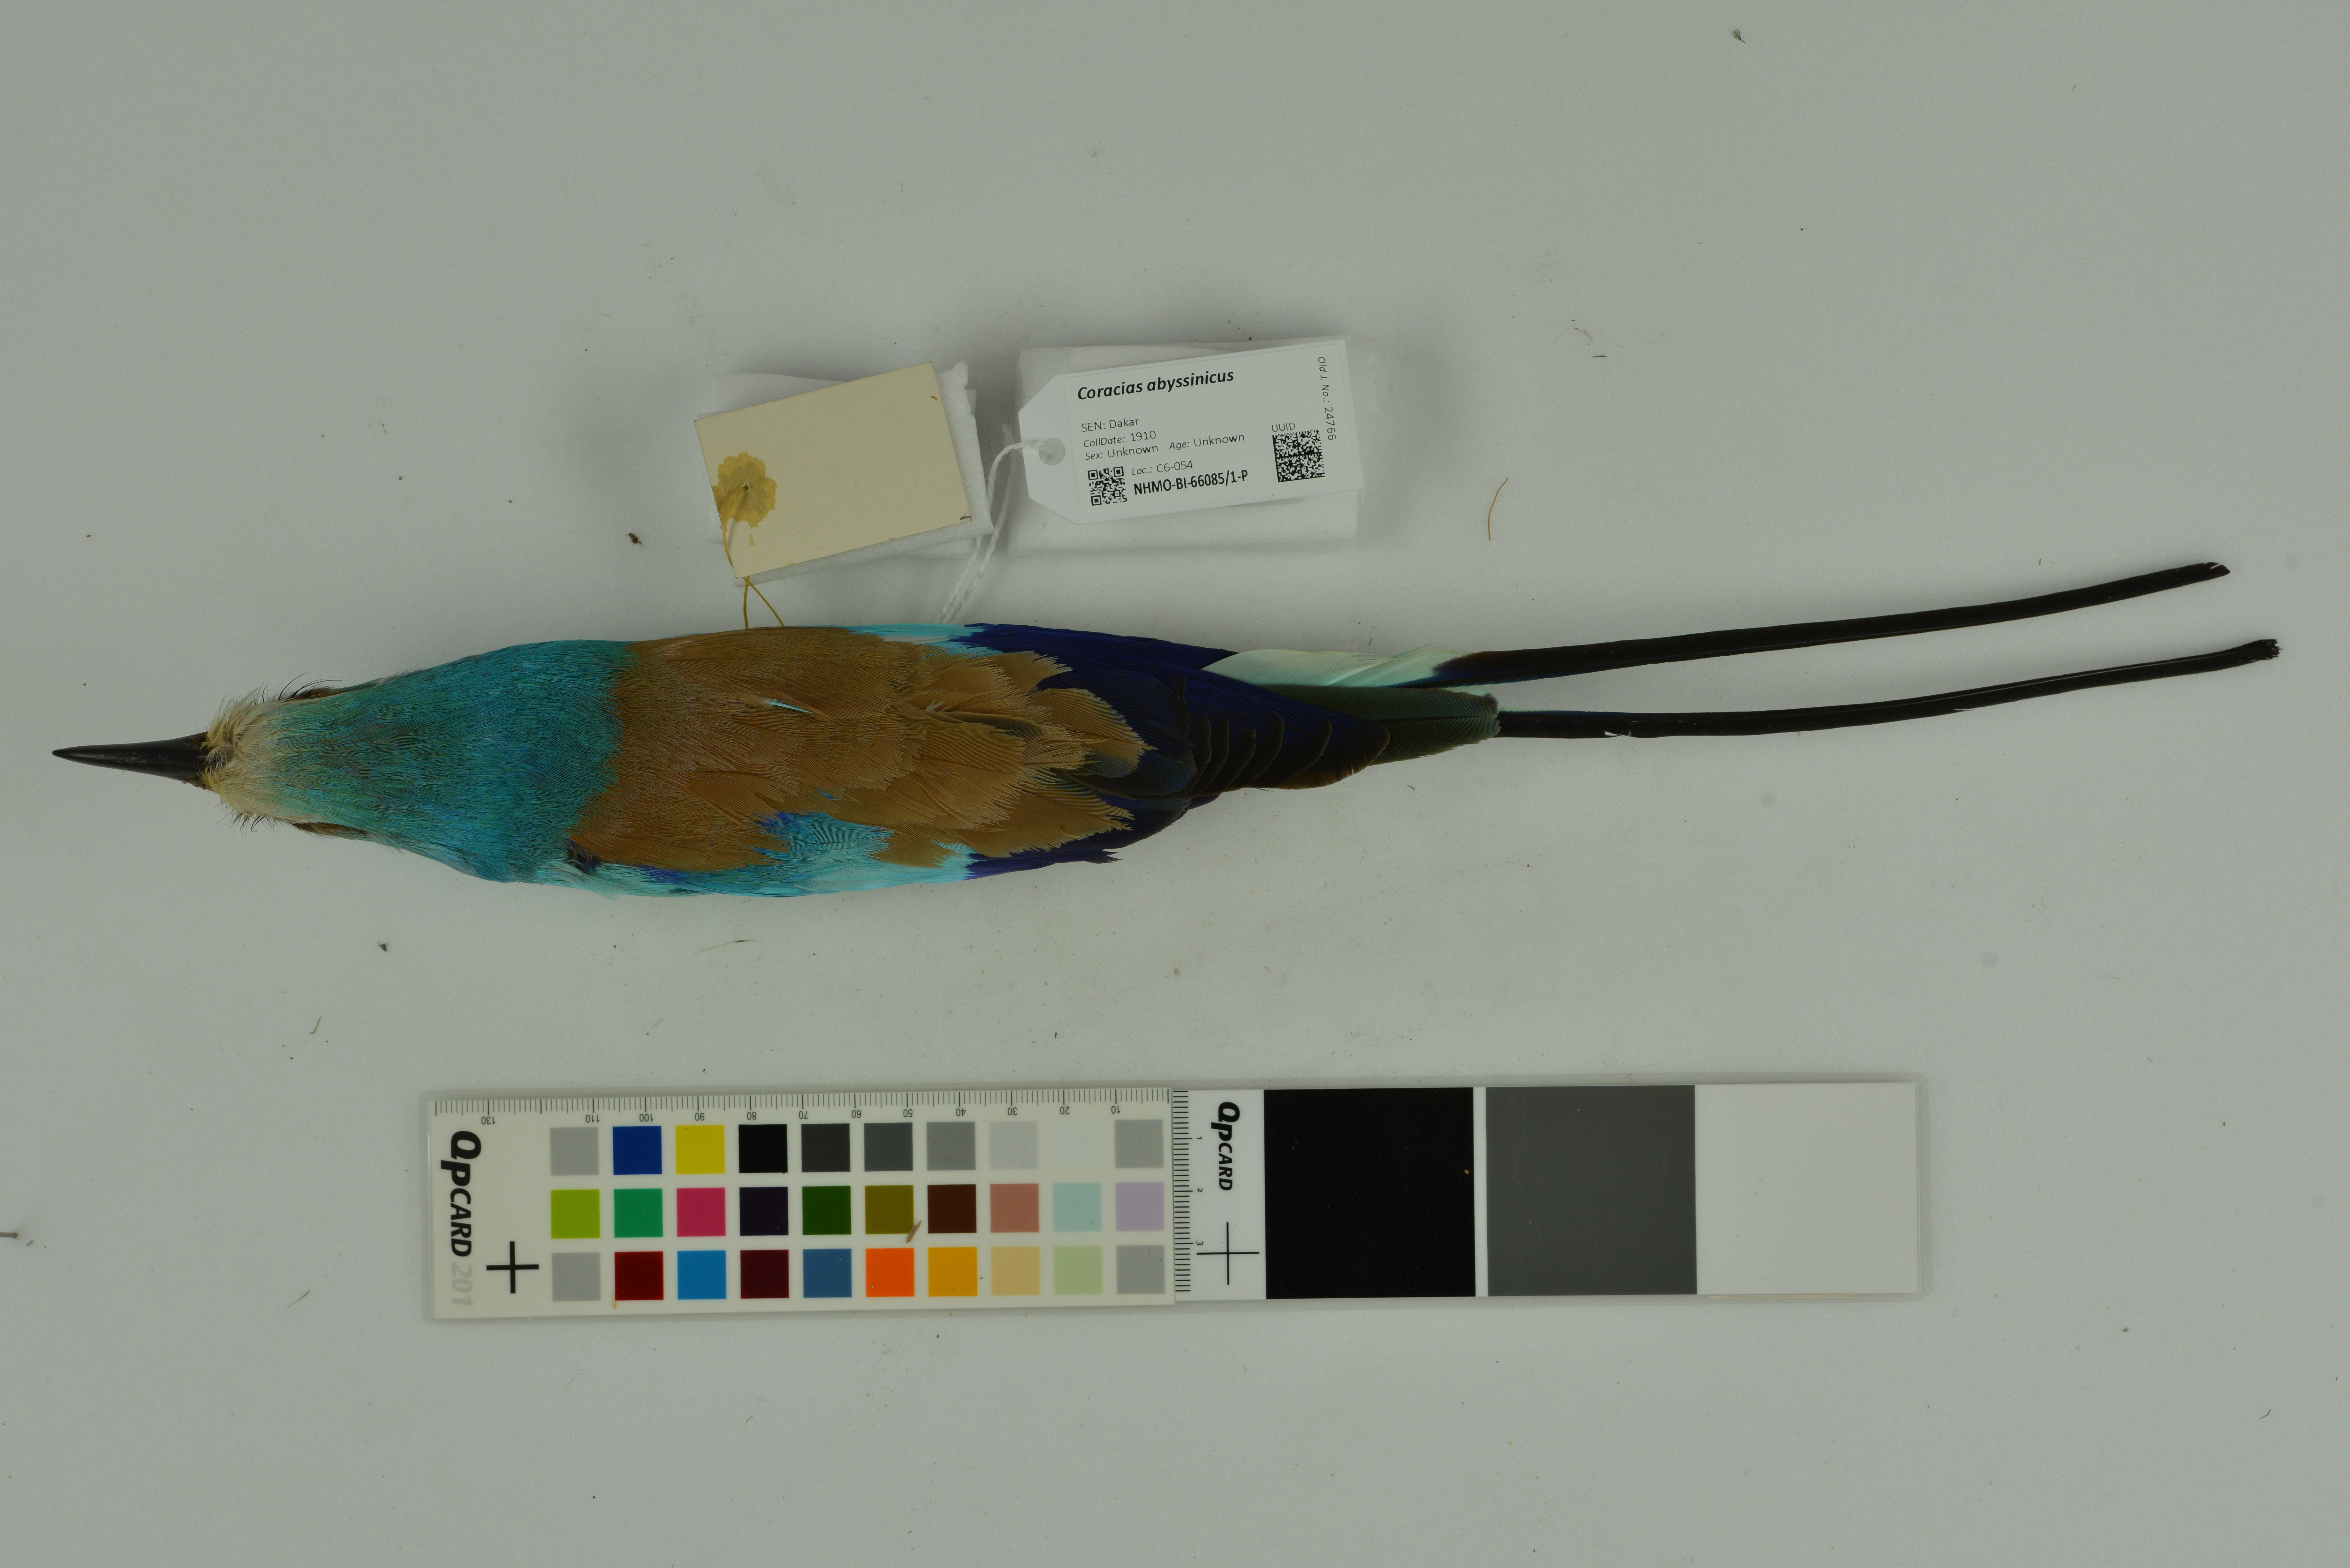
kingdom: Animalia
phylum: Chordata
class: Aves
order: Coraciiformes
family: Coraciidae
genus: Coracias
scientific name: Coracias abyssinicus
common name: Abyssinian roller
